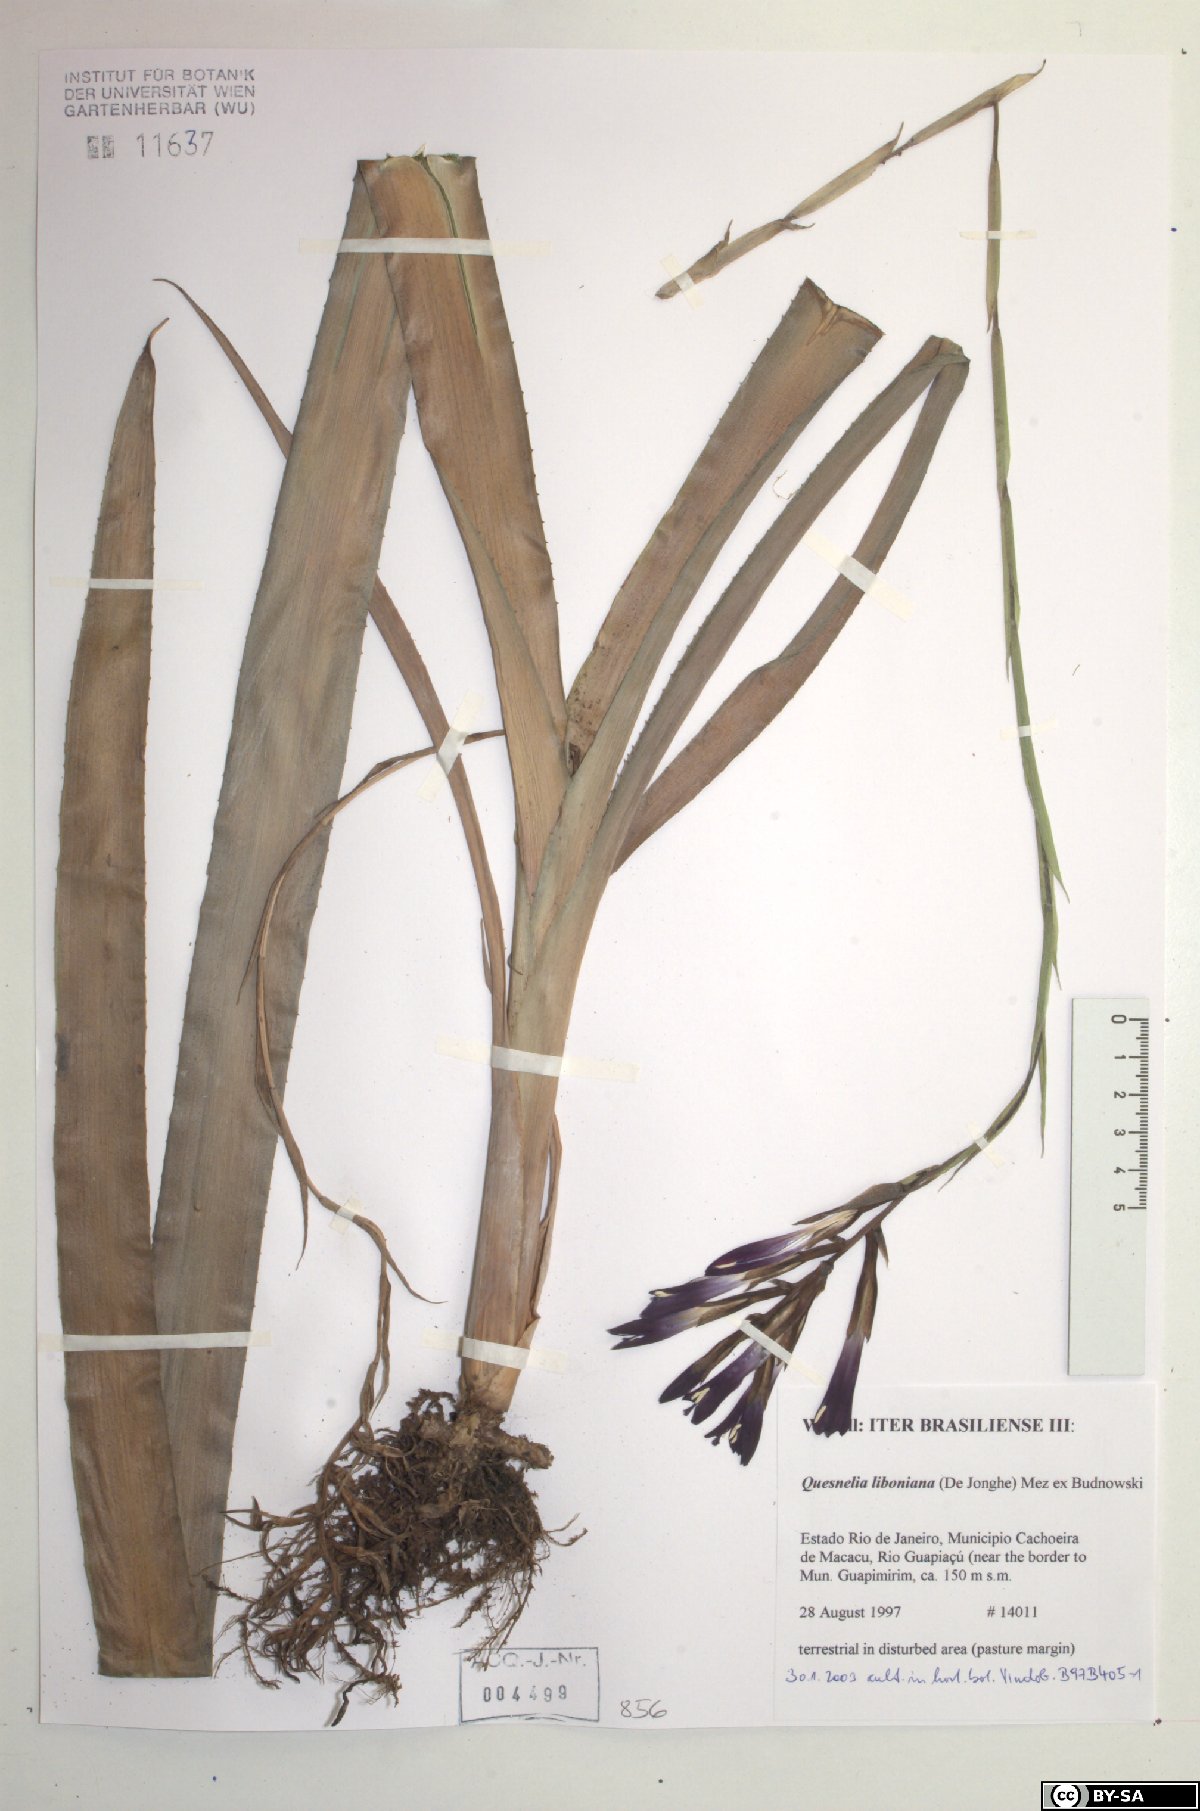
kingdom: Plantae
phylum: Tracheophyta
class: Liliopsida
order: Poales
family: Bromeliaceae
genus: Quesnelia
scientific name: Quesnelia liboniana
